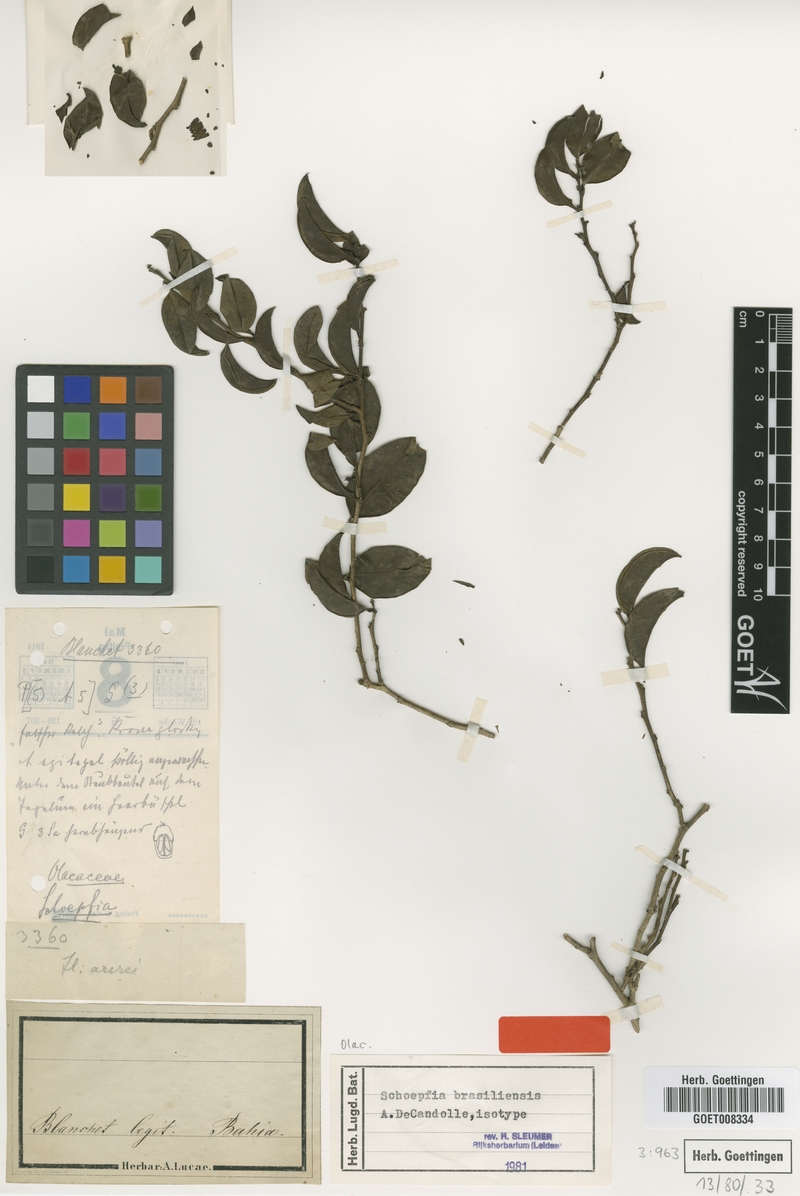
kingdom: Plantae
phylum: Tracheophyta
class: Magnoliopsida
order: Santalales
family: Schoepfiaceae
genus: Schoepfia
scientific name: Schoepfia brasiliensis
